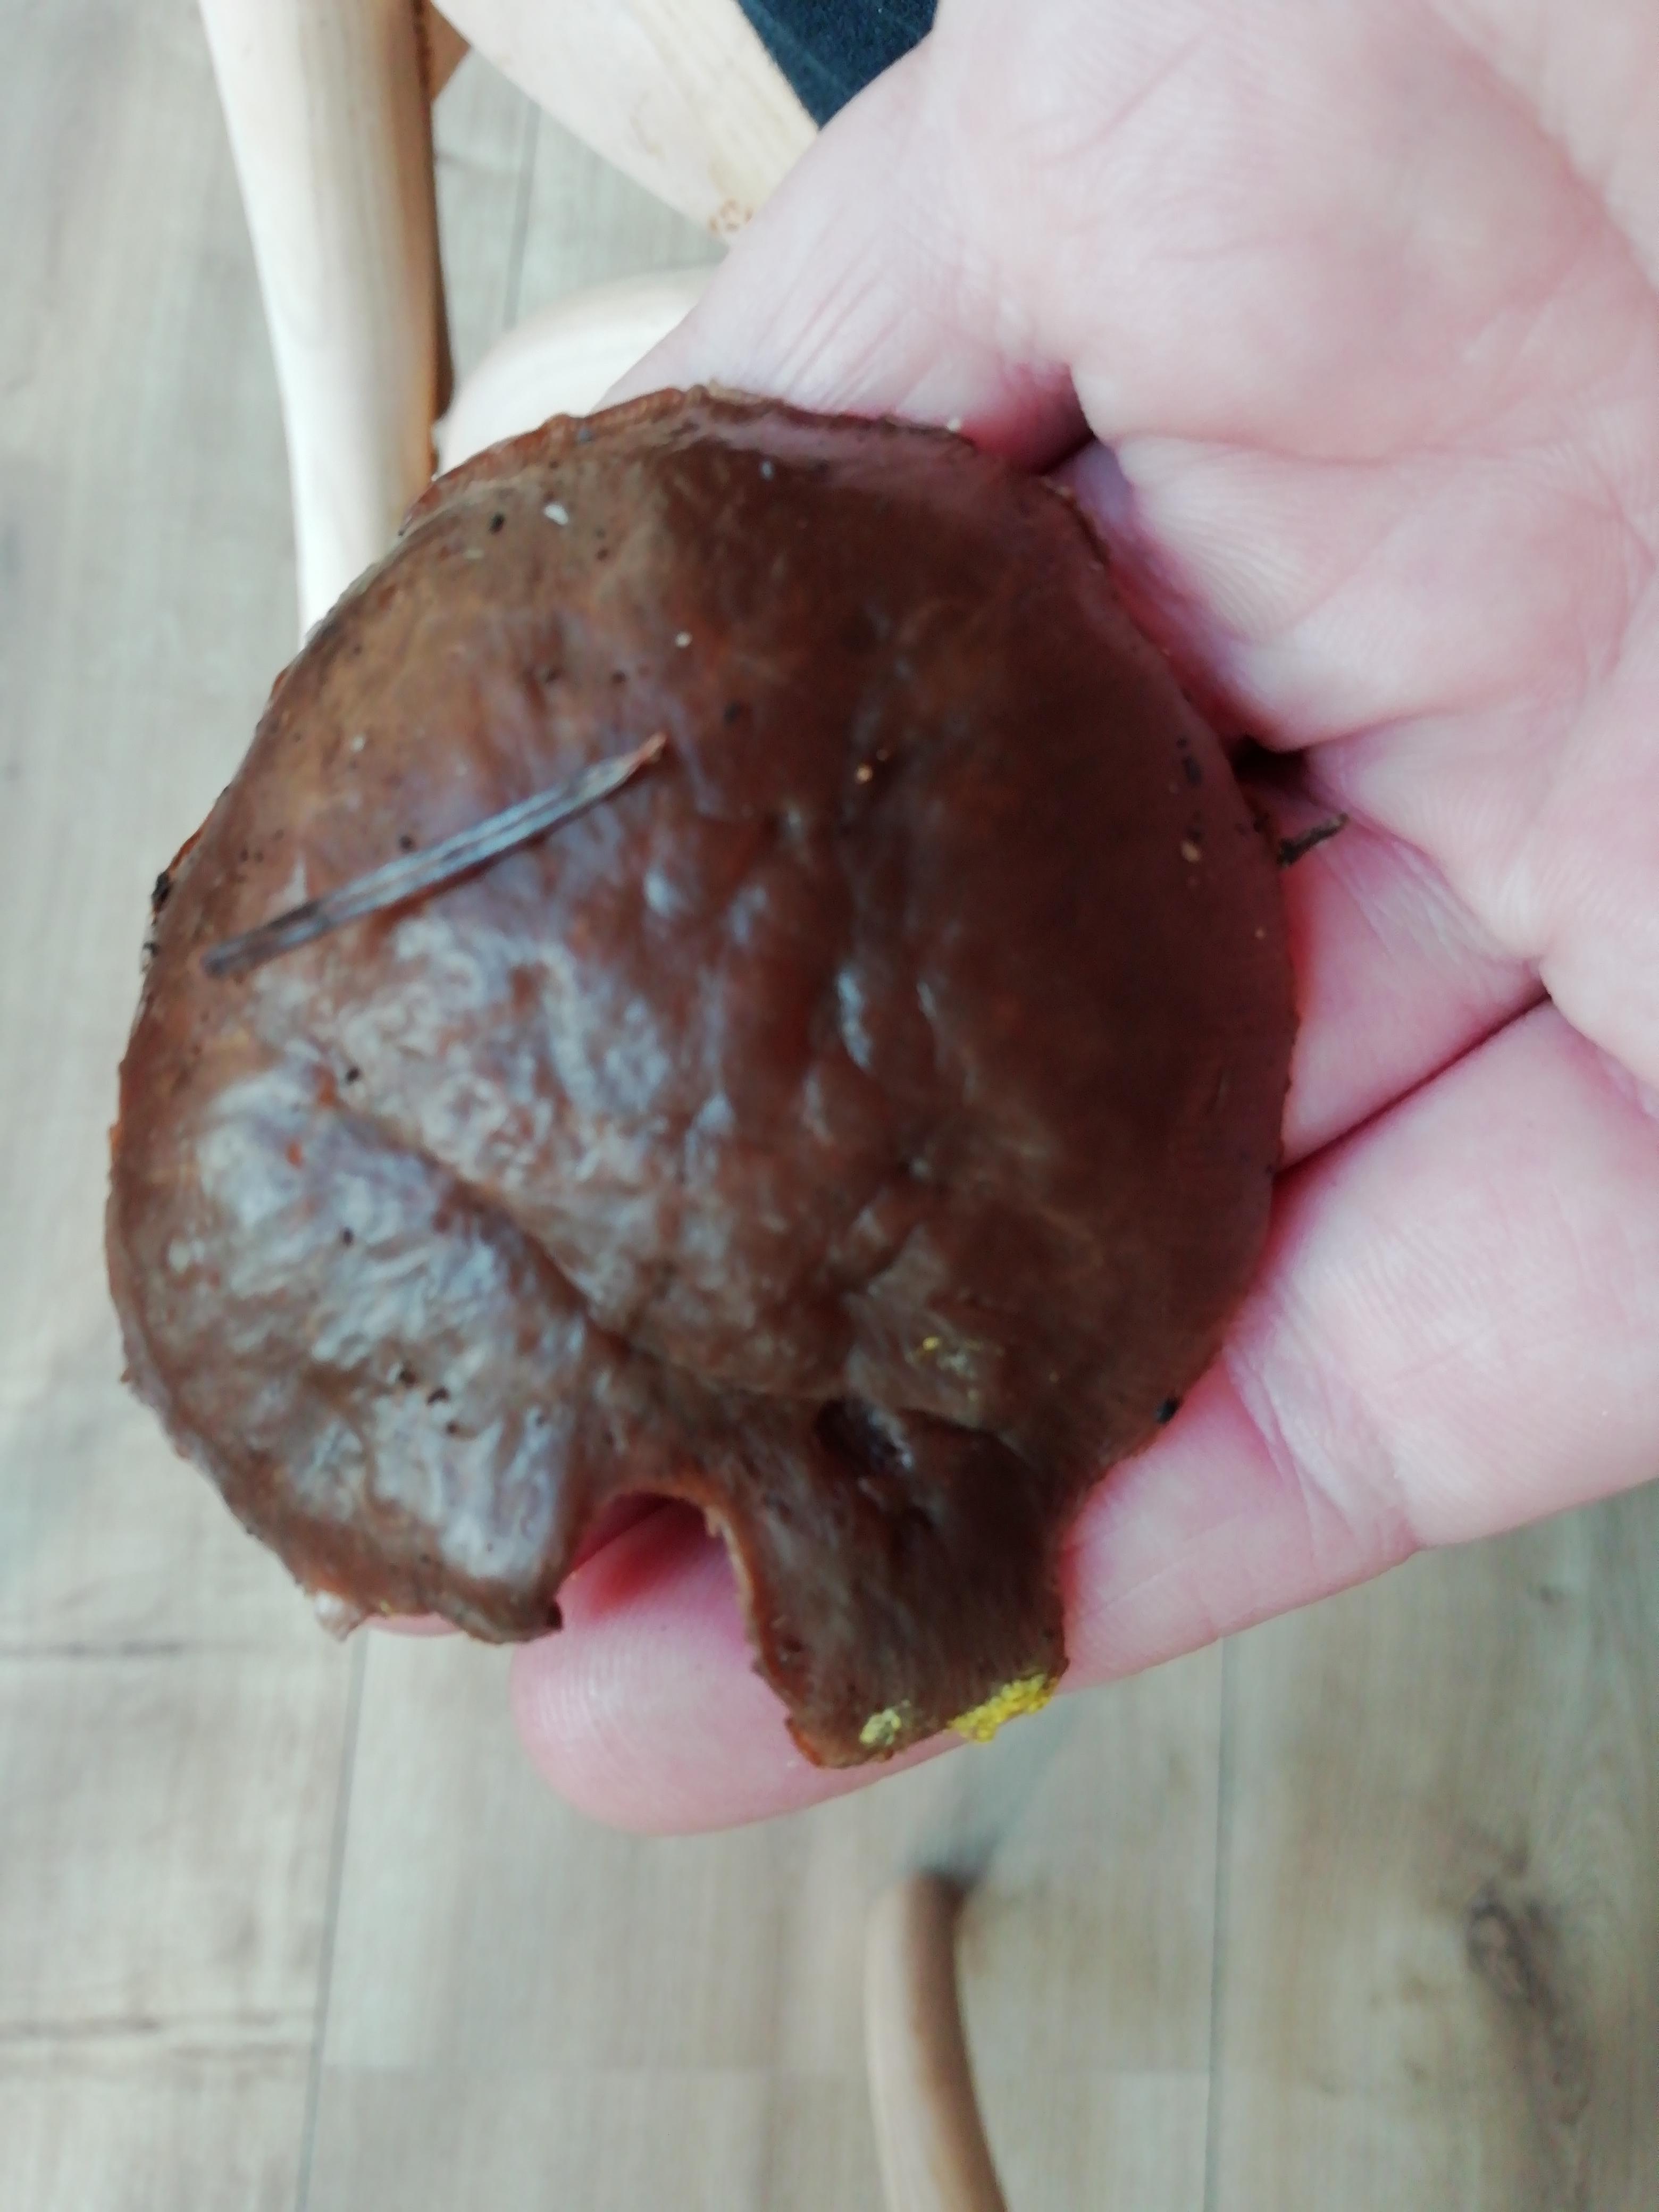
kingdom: Fungi
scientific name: Fungi
